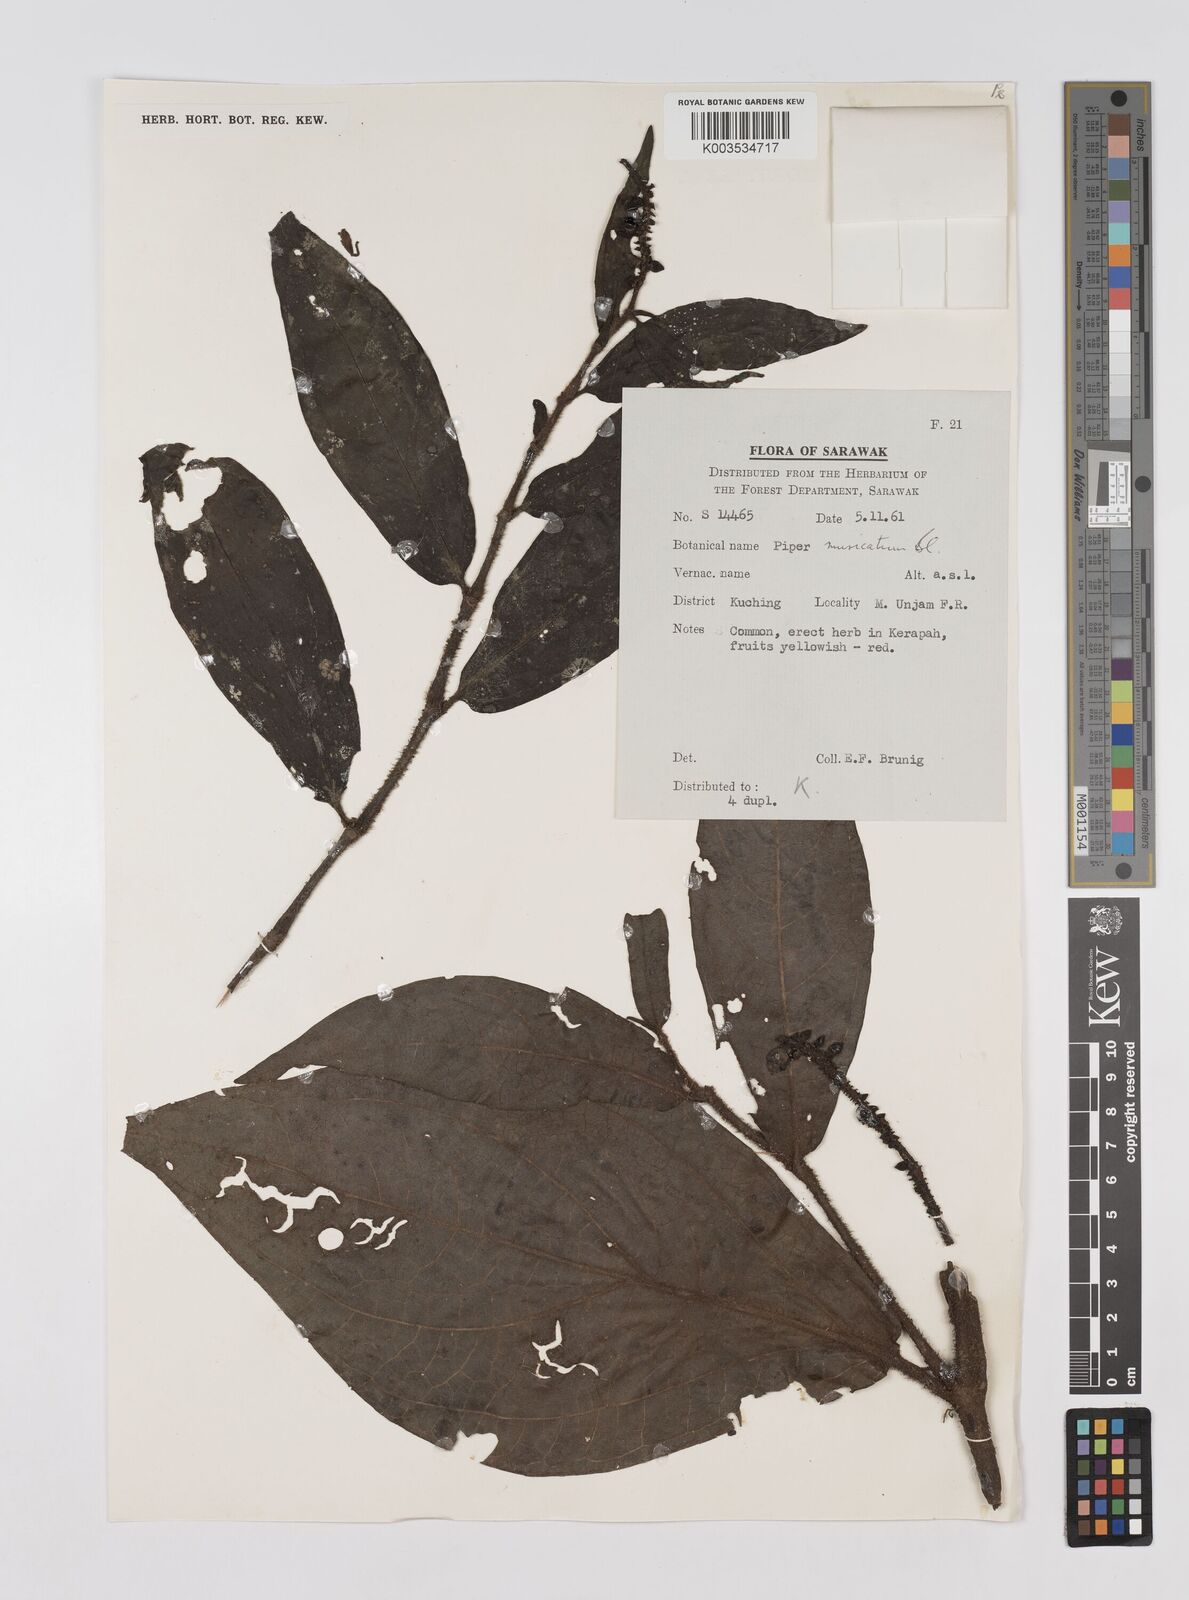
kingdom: Plantae
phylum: Tracheophyta
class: Magnoliopsida
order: Piperales
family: Piperaceae
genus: Piper
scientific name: Piper muricatum
